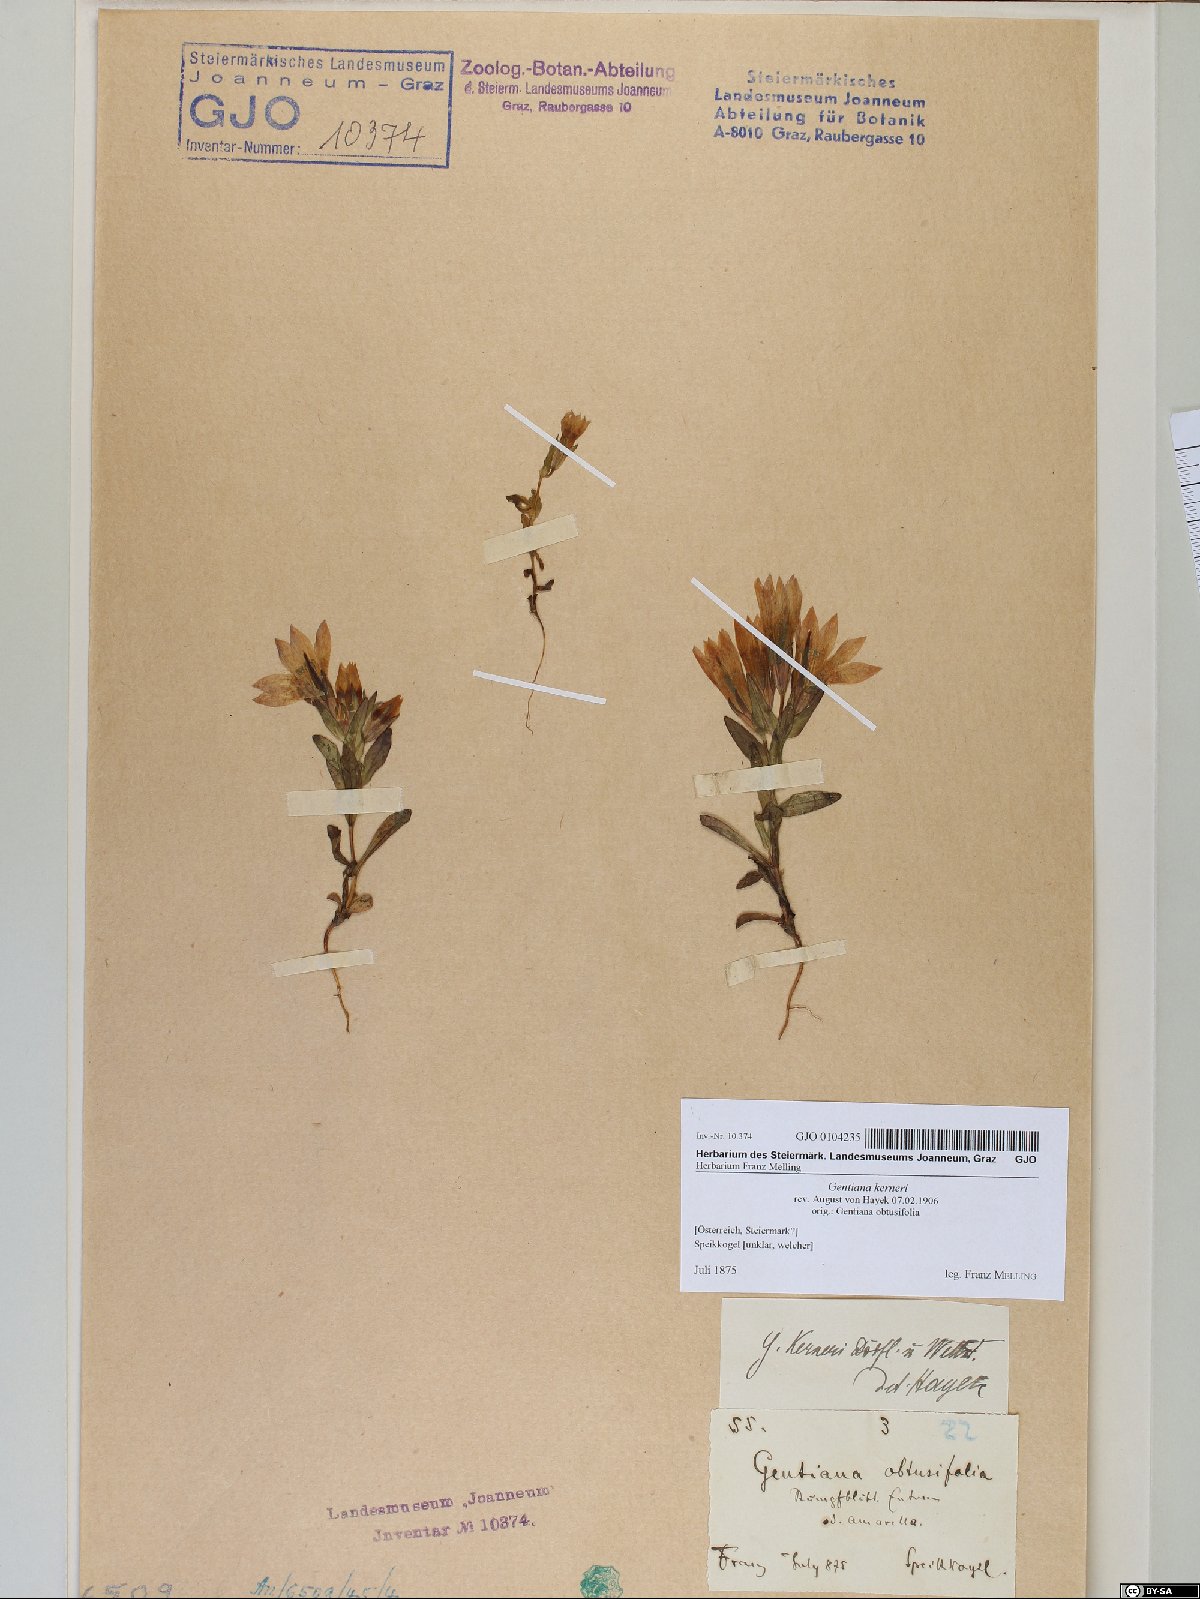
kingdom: Plantae
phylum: Tracheophyta
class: Magnoliopsida
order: Gentianales
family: Gentianaceae
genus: Gentianella
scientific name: Gentianella rhaetica
